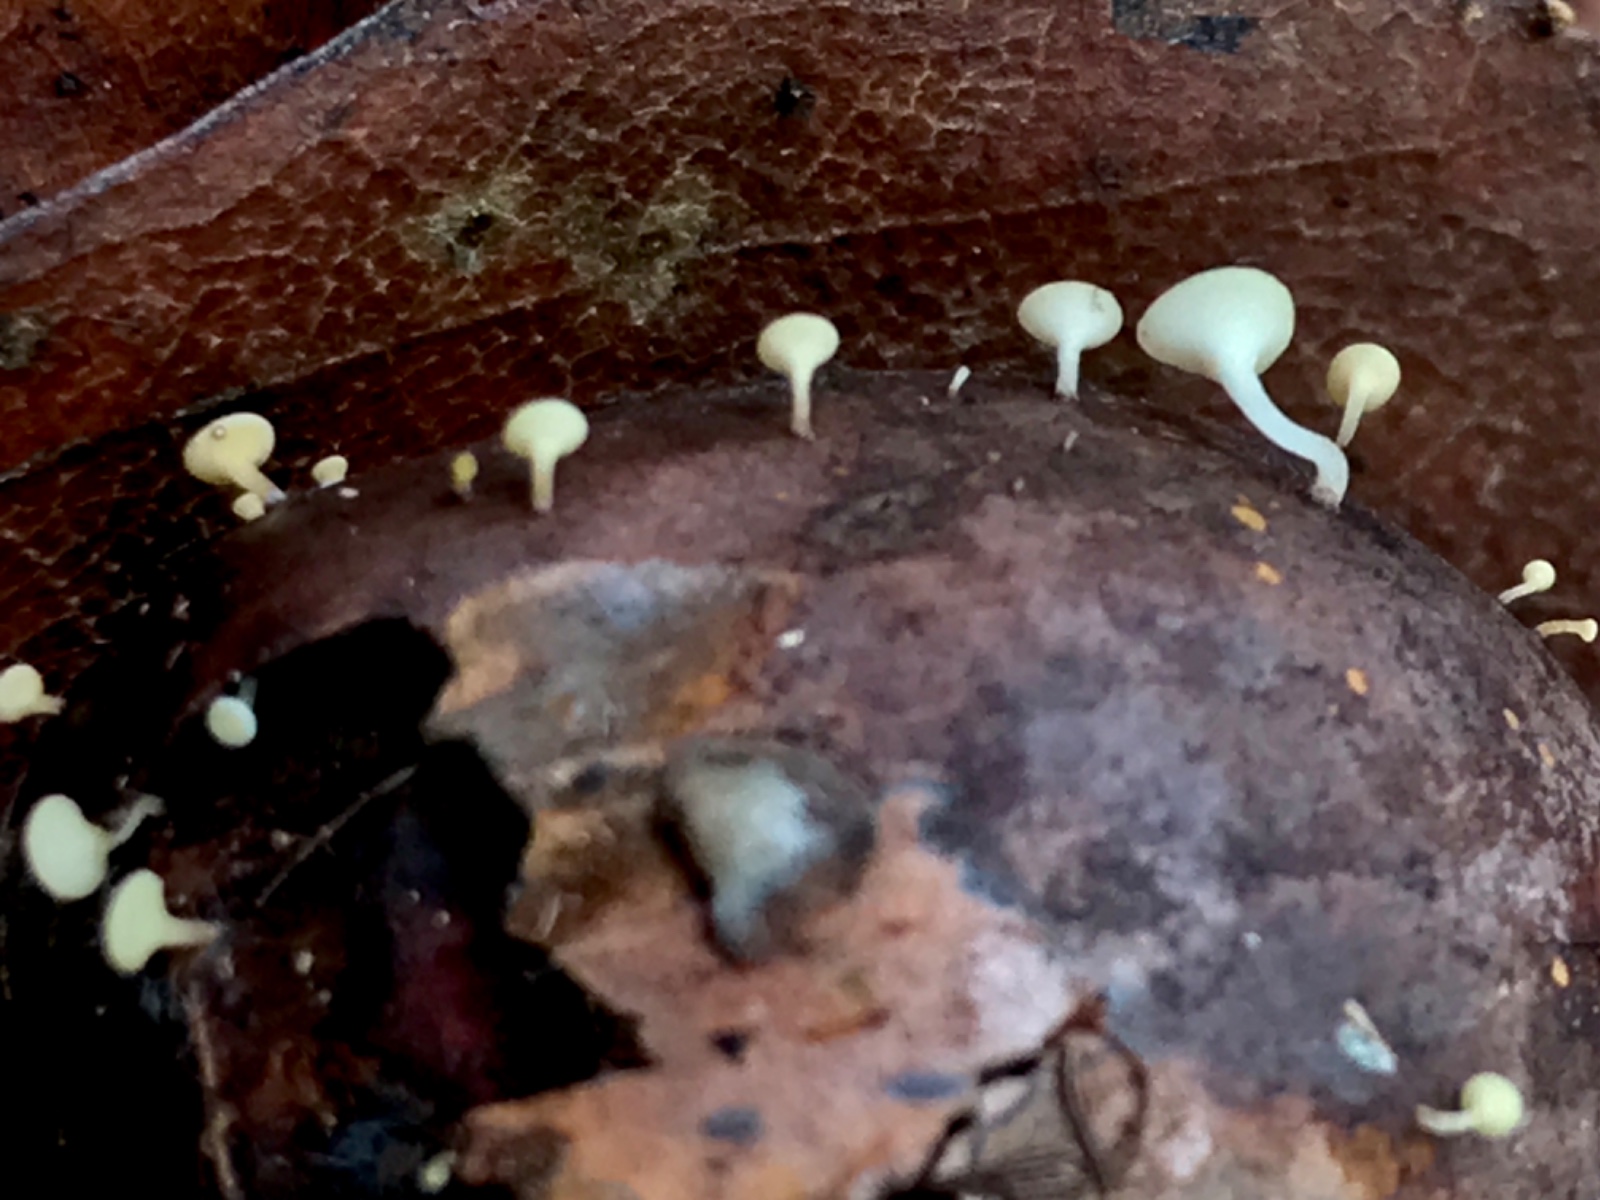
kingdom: Fungi
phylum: Ascomycota
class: Leotiomycetes
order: Helotiales
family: Helotiaceae
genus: Hymenoscyphus
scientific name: Hymenoscyphus fructigenus
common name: frugt-stilkskive
